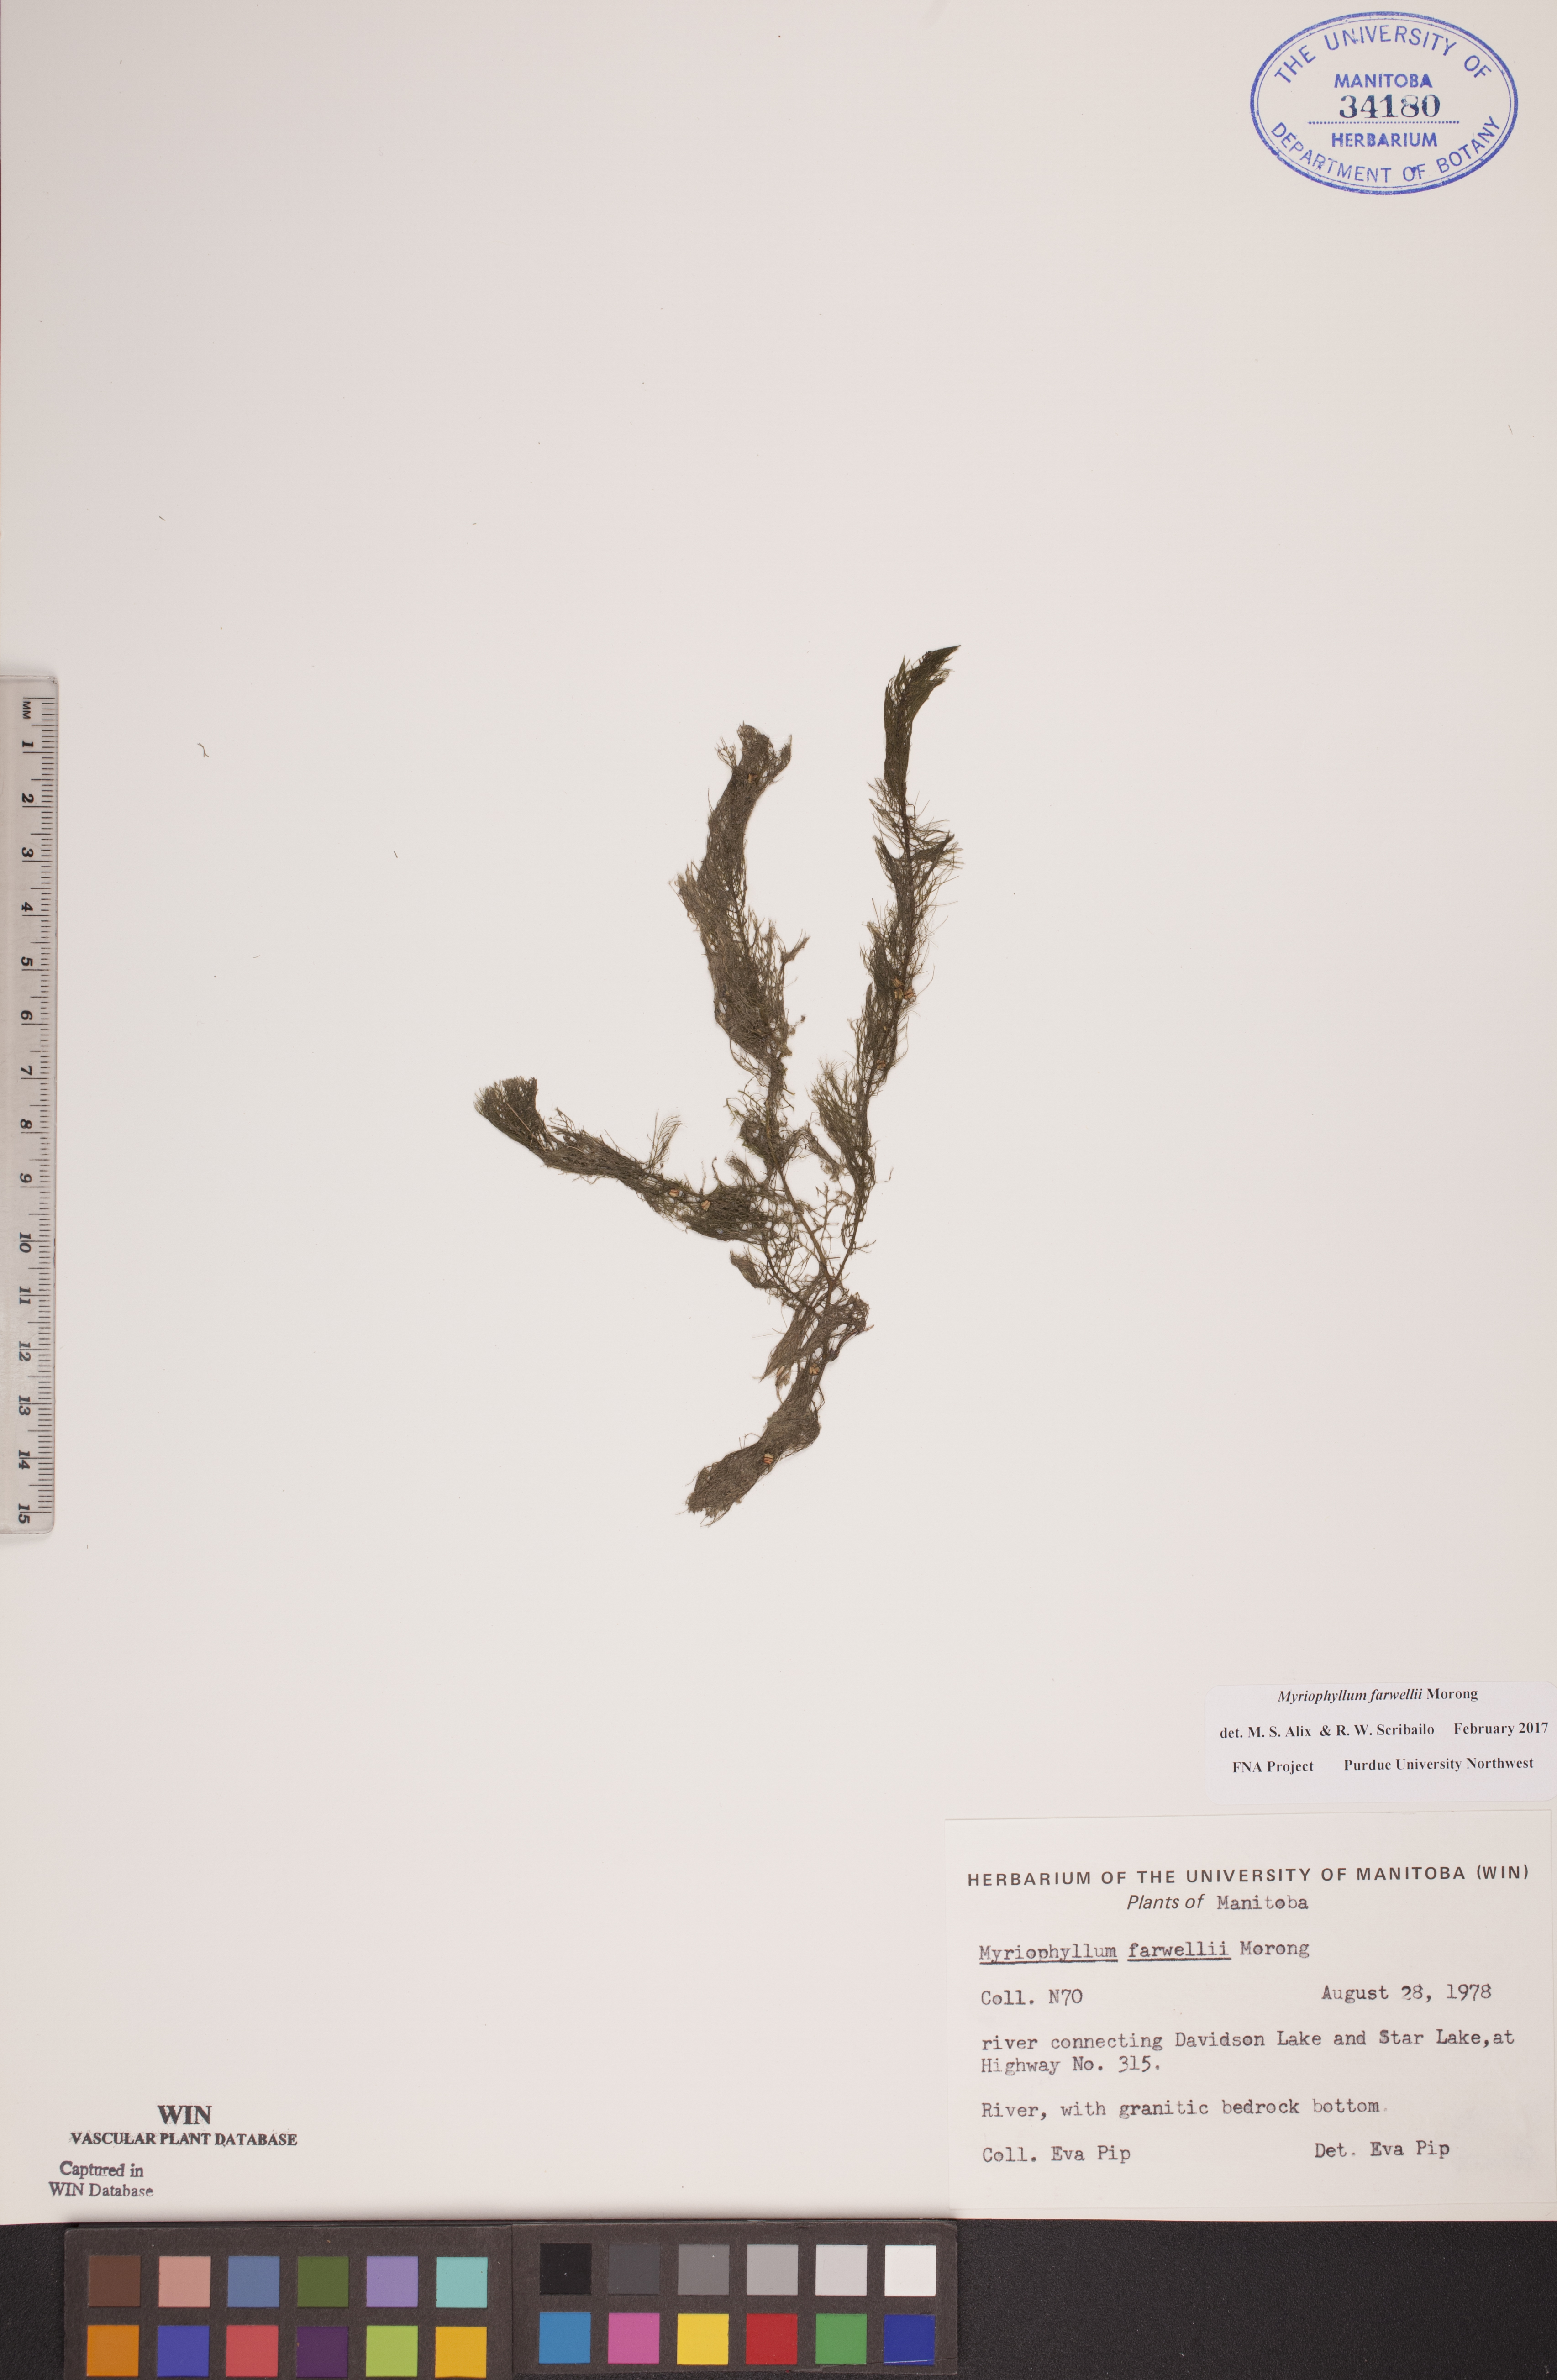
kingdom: Plantae
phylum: Tracheophyta
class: Magnoliopsida
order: Saxifragales
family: Haloragaceae
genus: Myriophyllum
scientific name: Myriophyllum farwellii
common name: Farwell's water-milfoil
